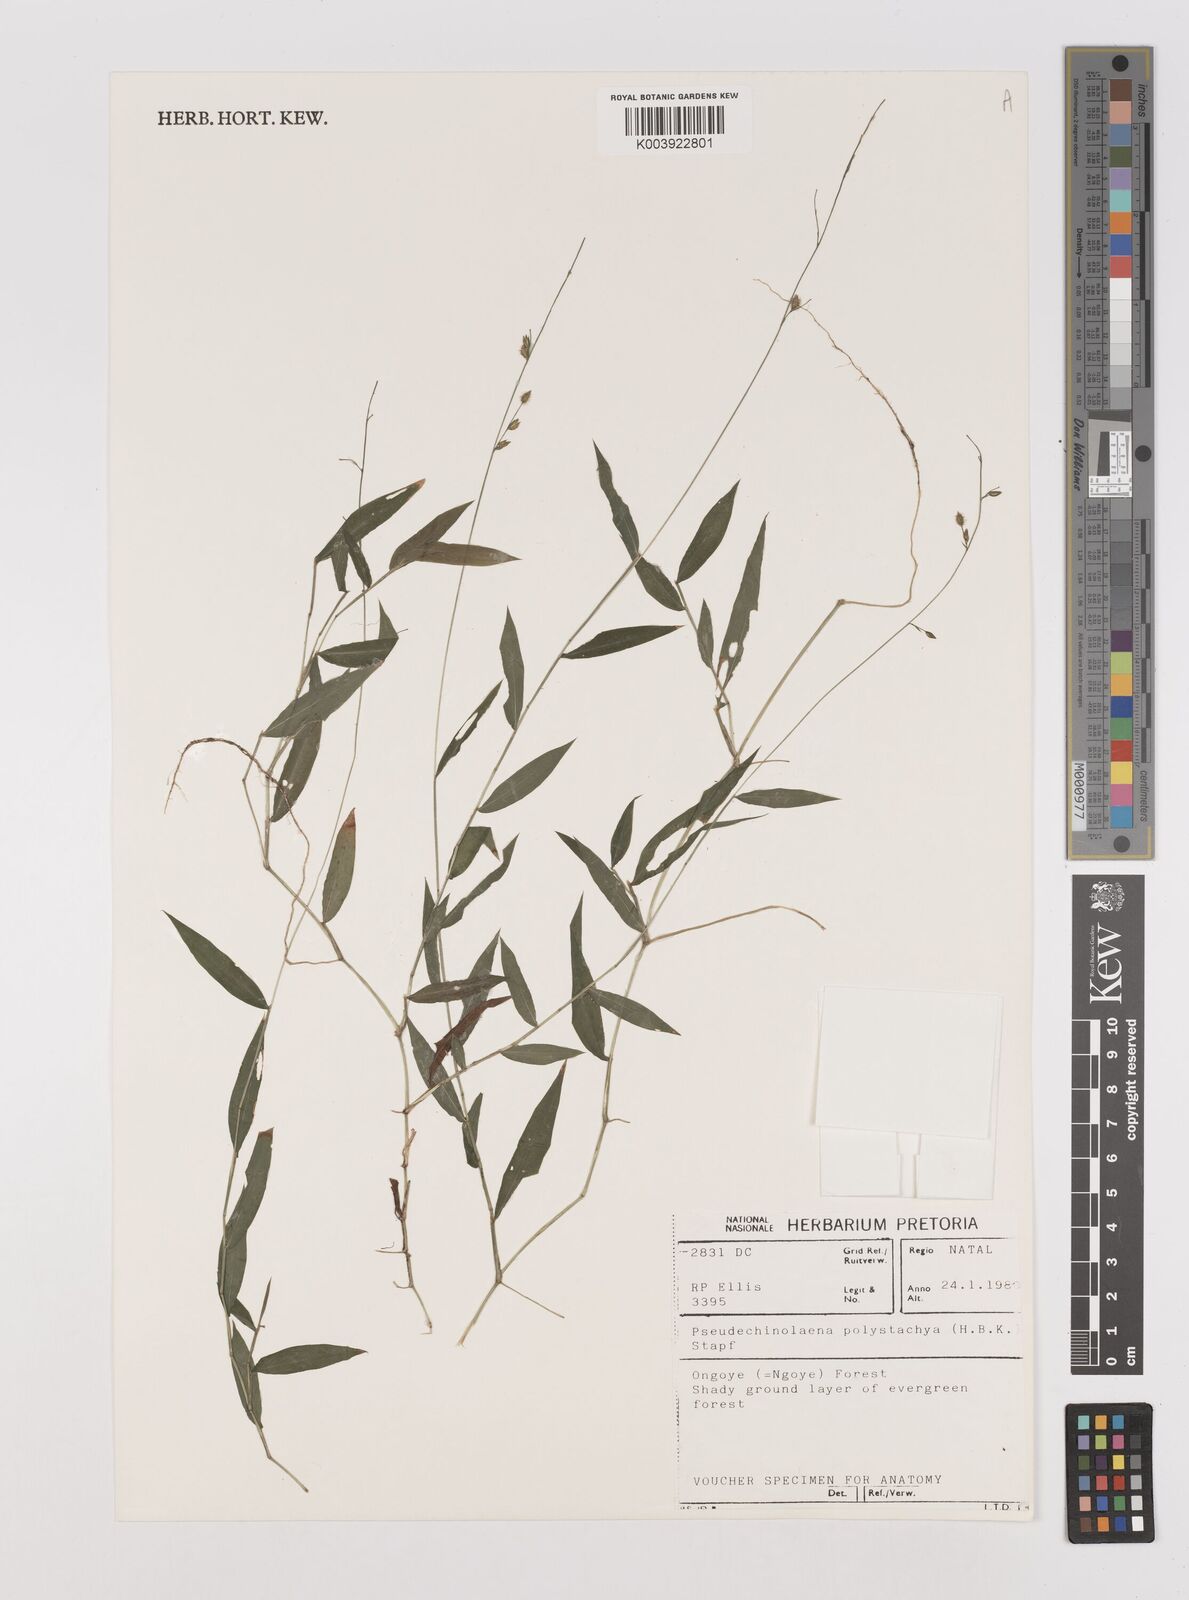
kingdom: Plantae
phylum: Tracheophyta
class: Liliopsida
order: Poales
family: Poaceae
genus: Pseudechinolaena
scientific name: Pseudechinolaena polystachya
